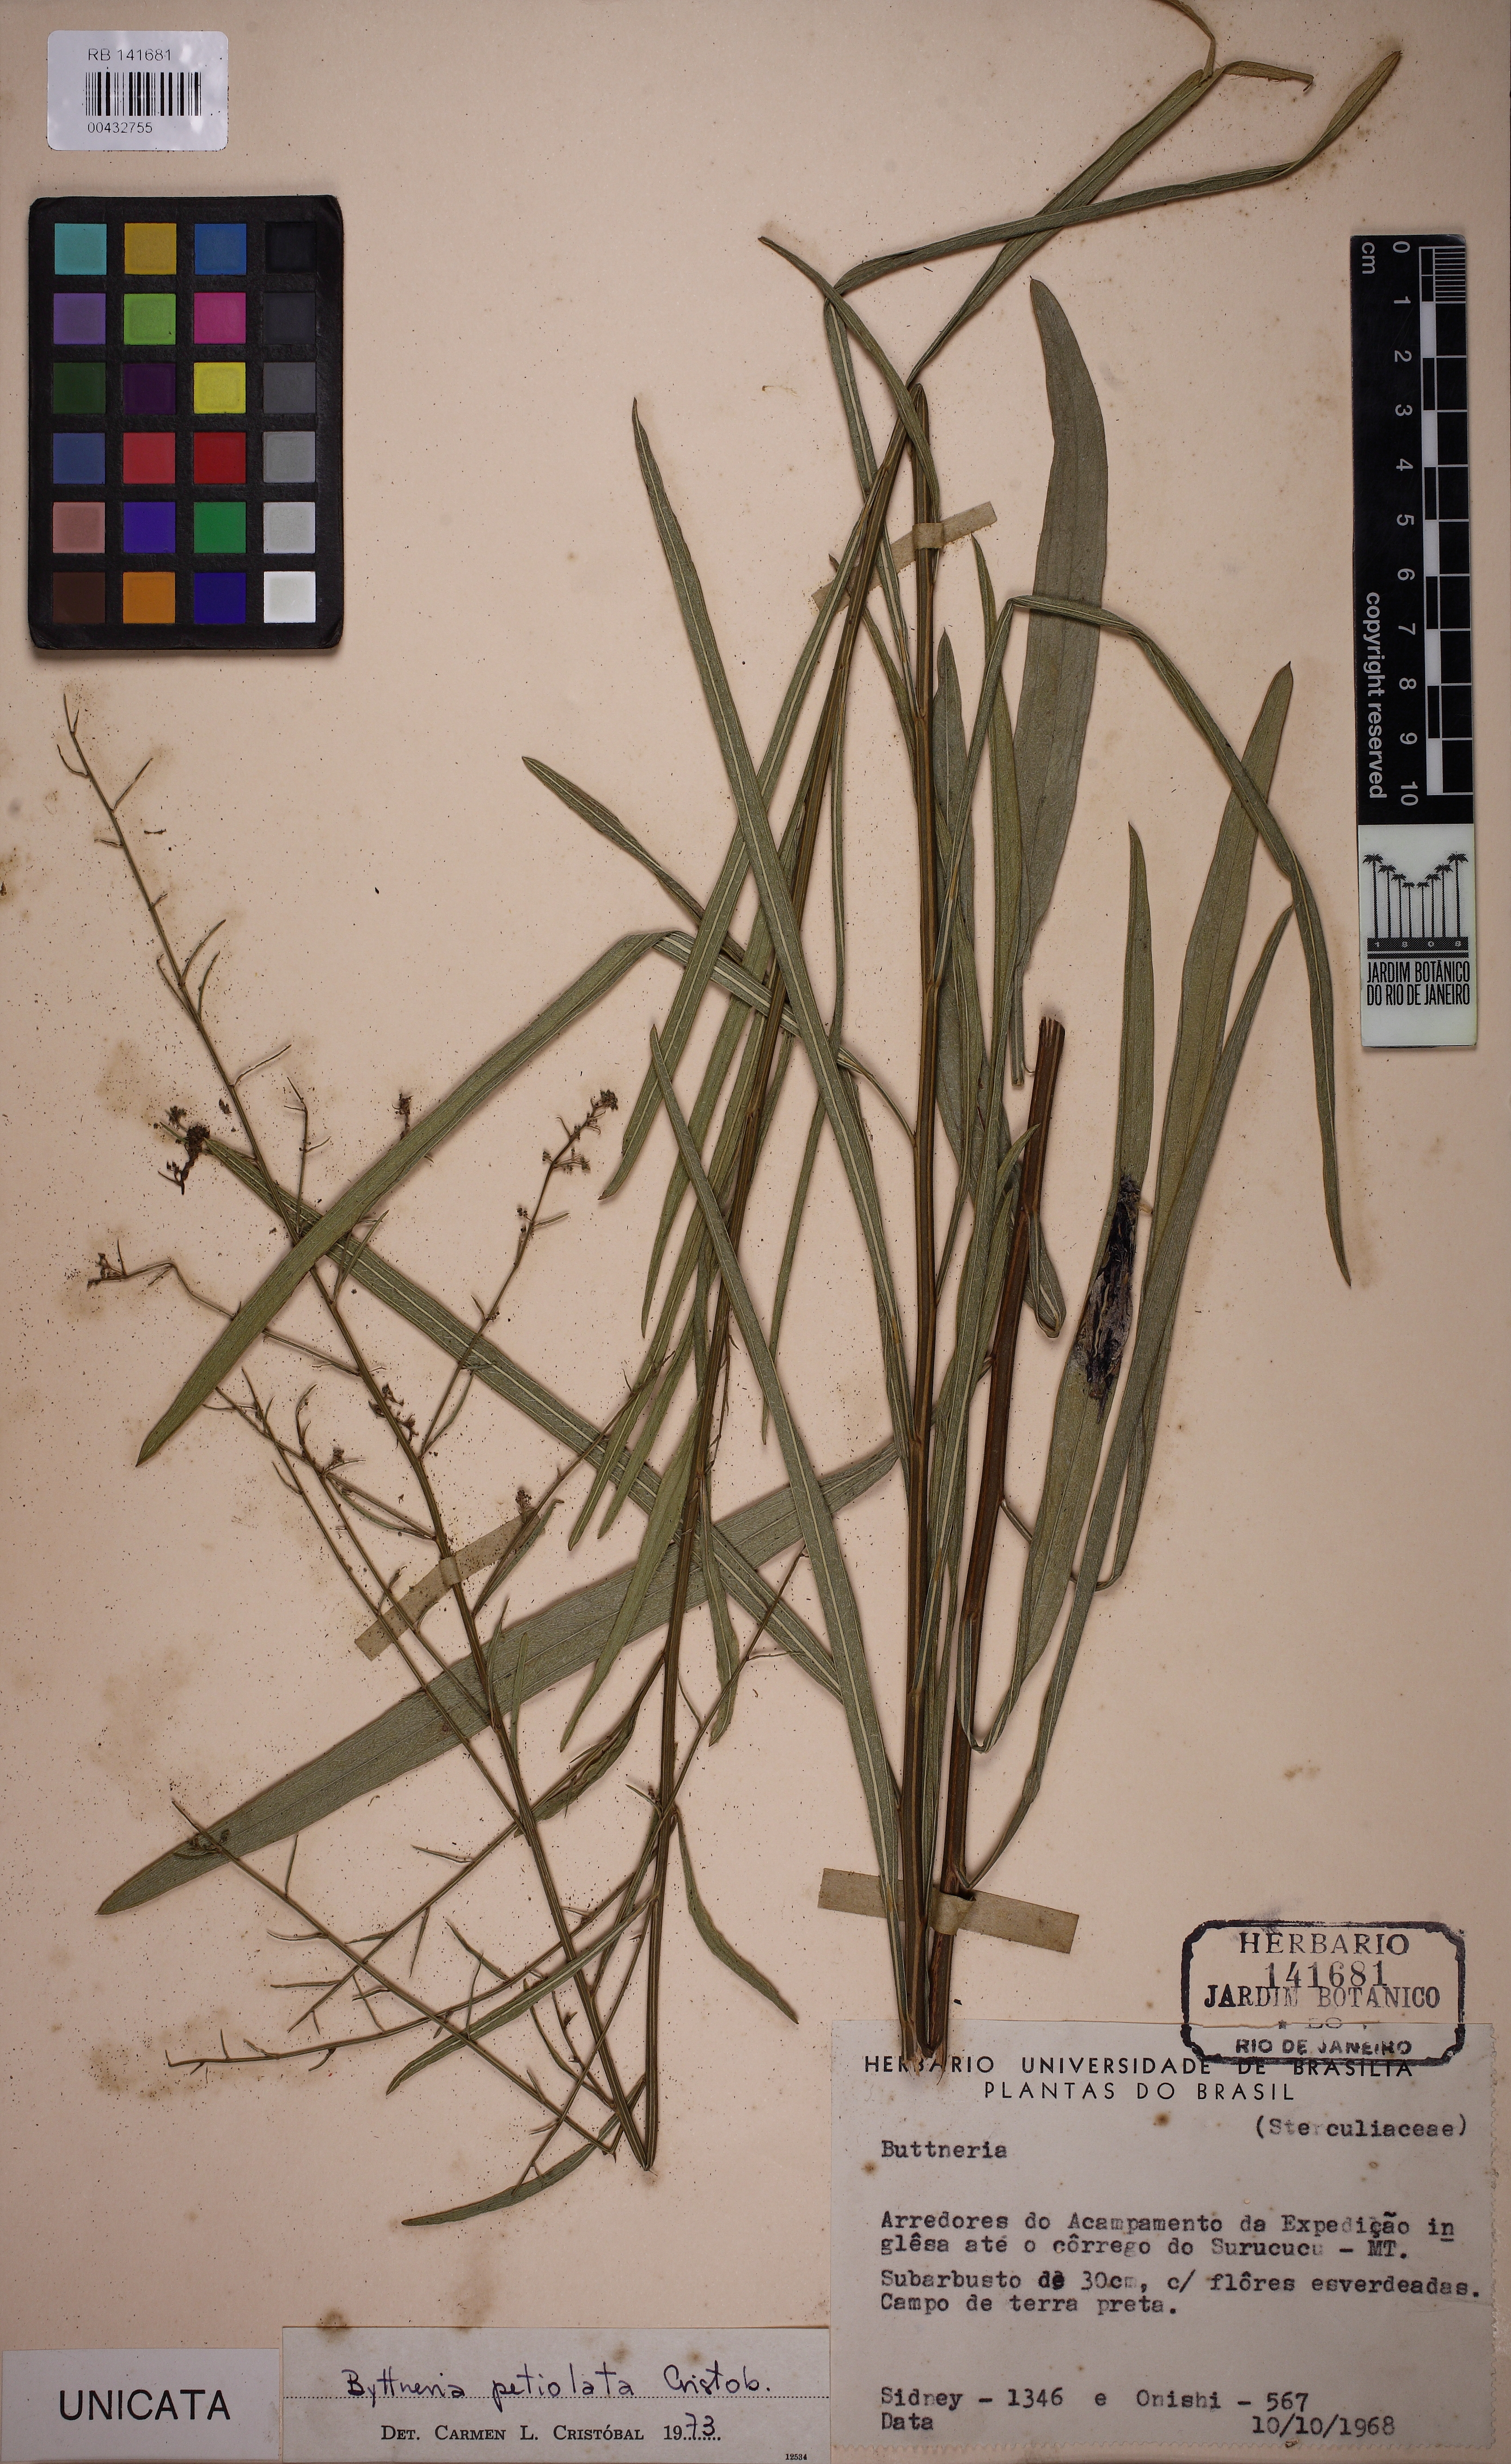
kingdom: Plantae
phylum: Tracheophyta
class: Magnoliopsida
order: Malvales
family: Malvaceae
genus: Byttneria
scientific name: Byttneria petiolata
